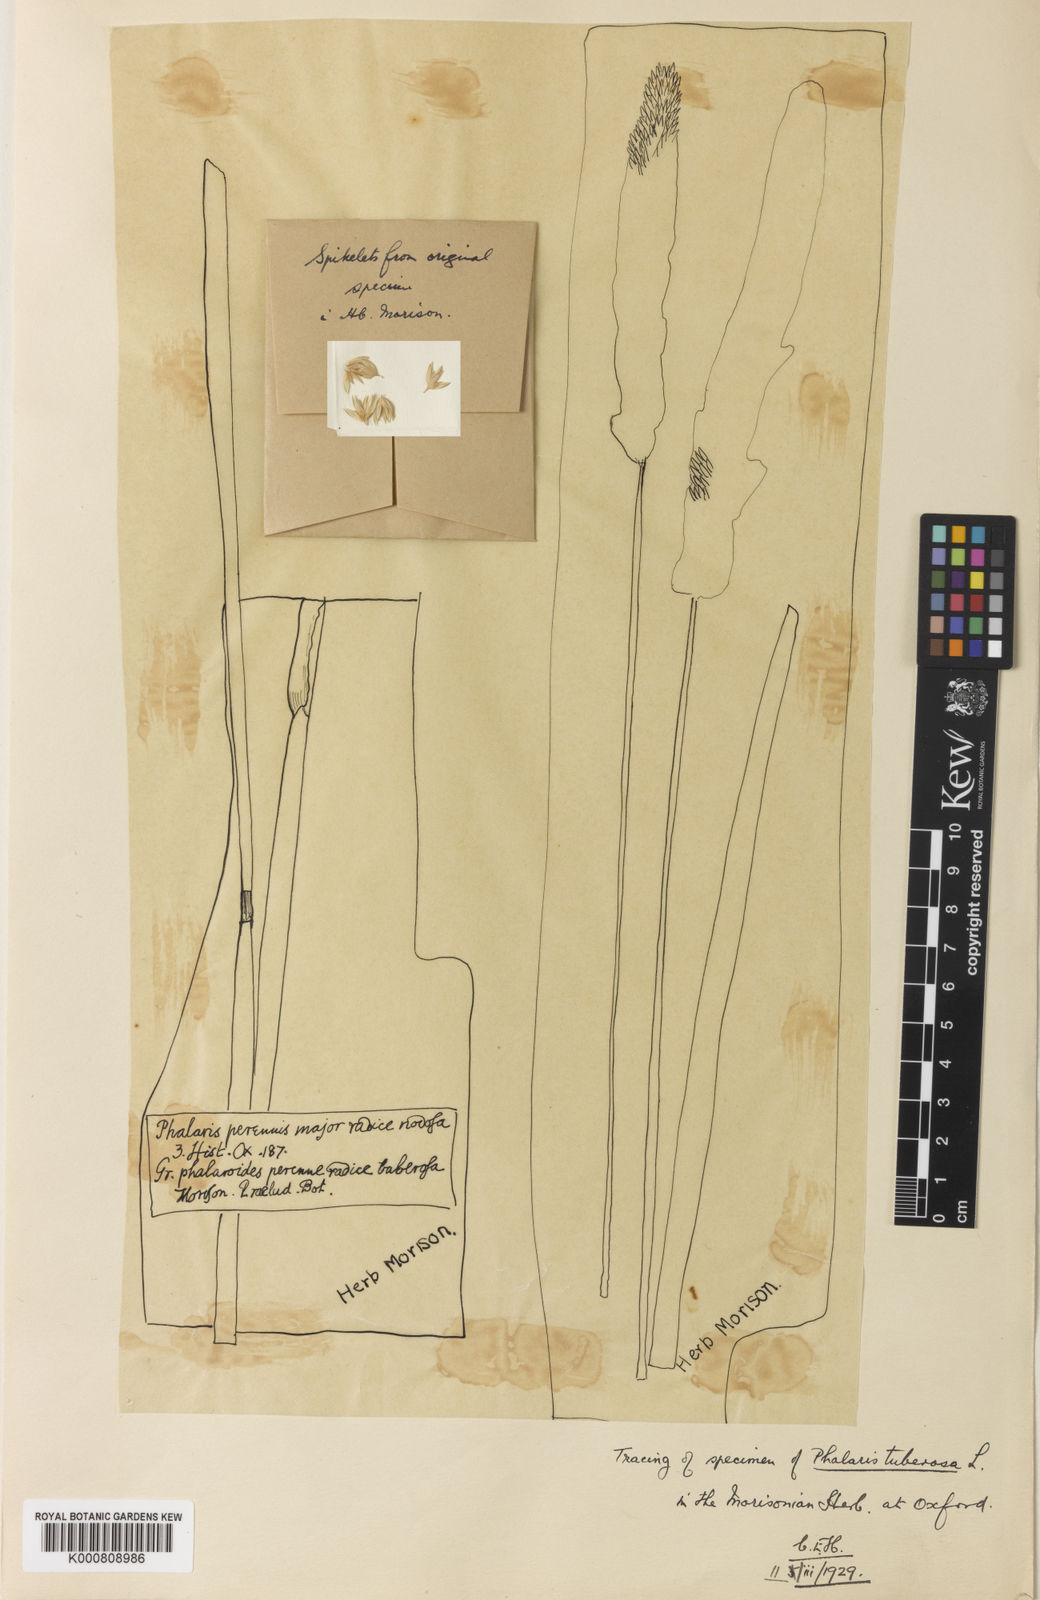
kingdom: Plantae
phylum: Tracheophyta
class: Liliopsida
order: Poales
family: Poaceae
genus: Phalaris
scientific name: Phalaris aquatica
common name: Bulbous canary-grass
